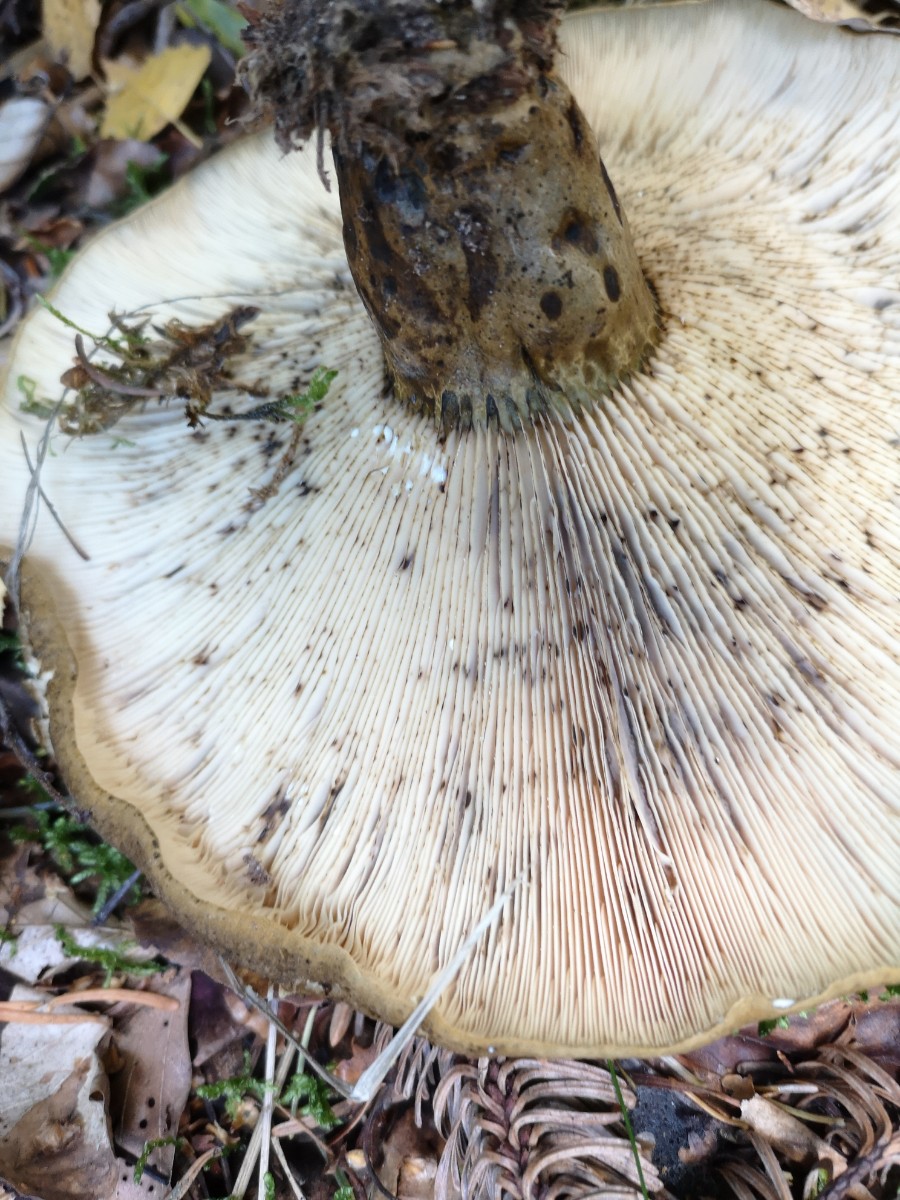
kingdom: Fungi
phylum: Basidiomycota
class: Agaricomycetes
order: Russulales
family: Russulaceae
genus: Lactarius
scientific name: Lactarius necator
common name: manddraber-mælkehat
